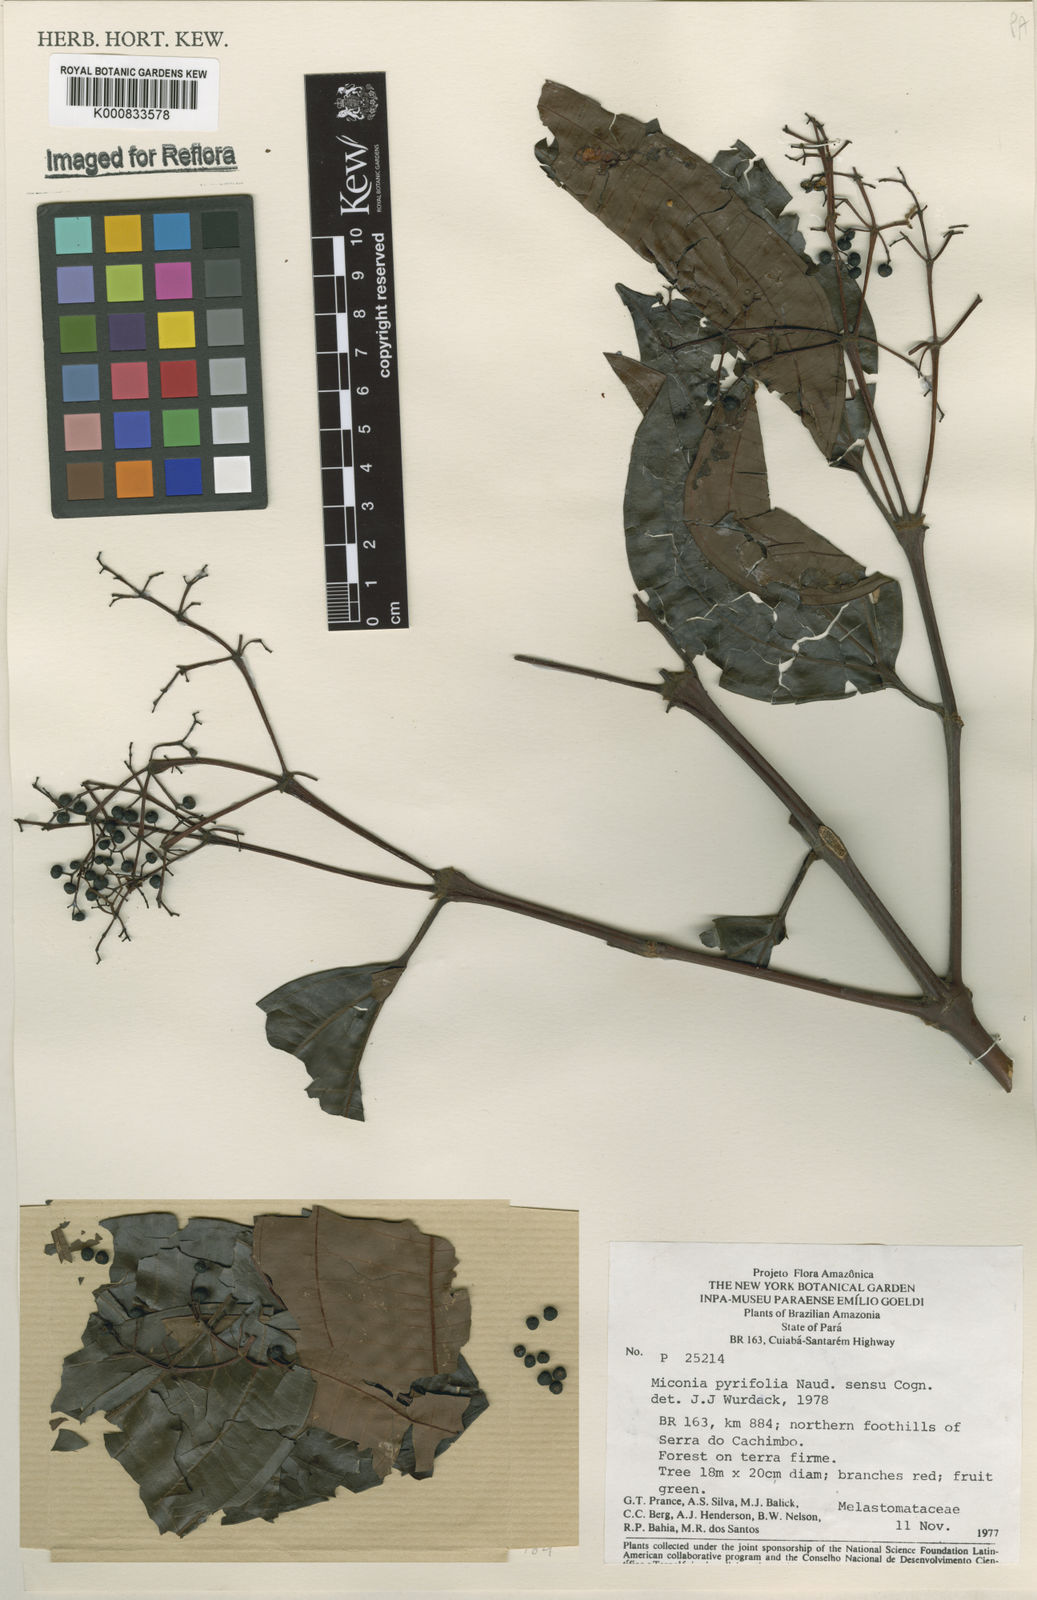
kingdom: Plantae
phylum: Tracheophyta
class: Magnoliopsida
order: Myrtales
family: Melastomataceae
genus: Miconia
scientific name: Miconia pyrifolia
